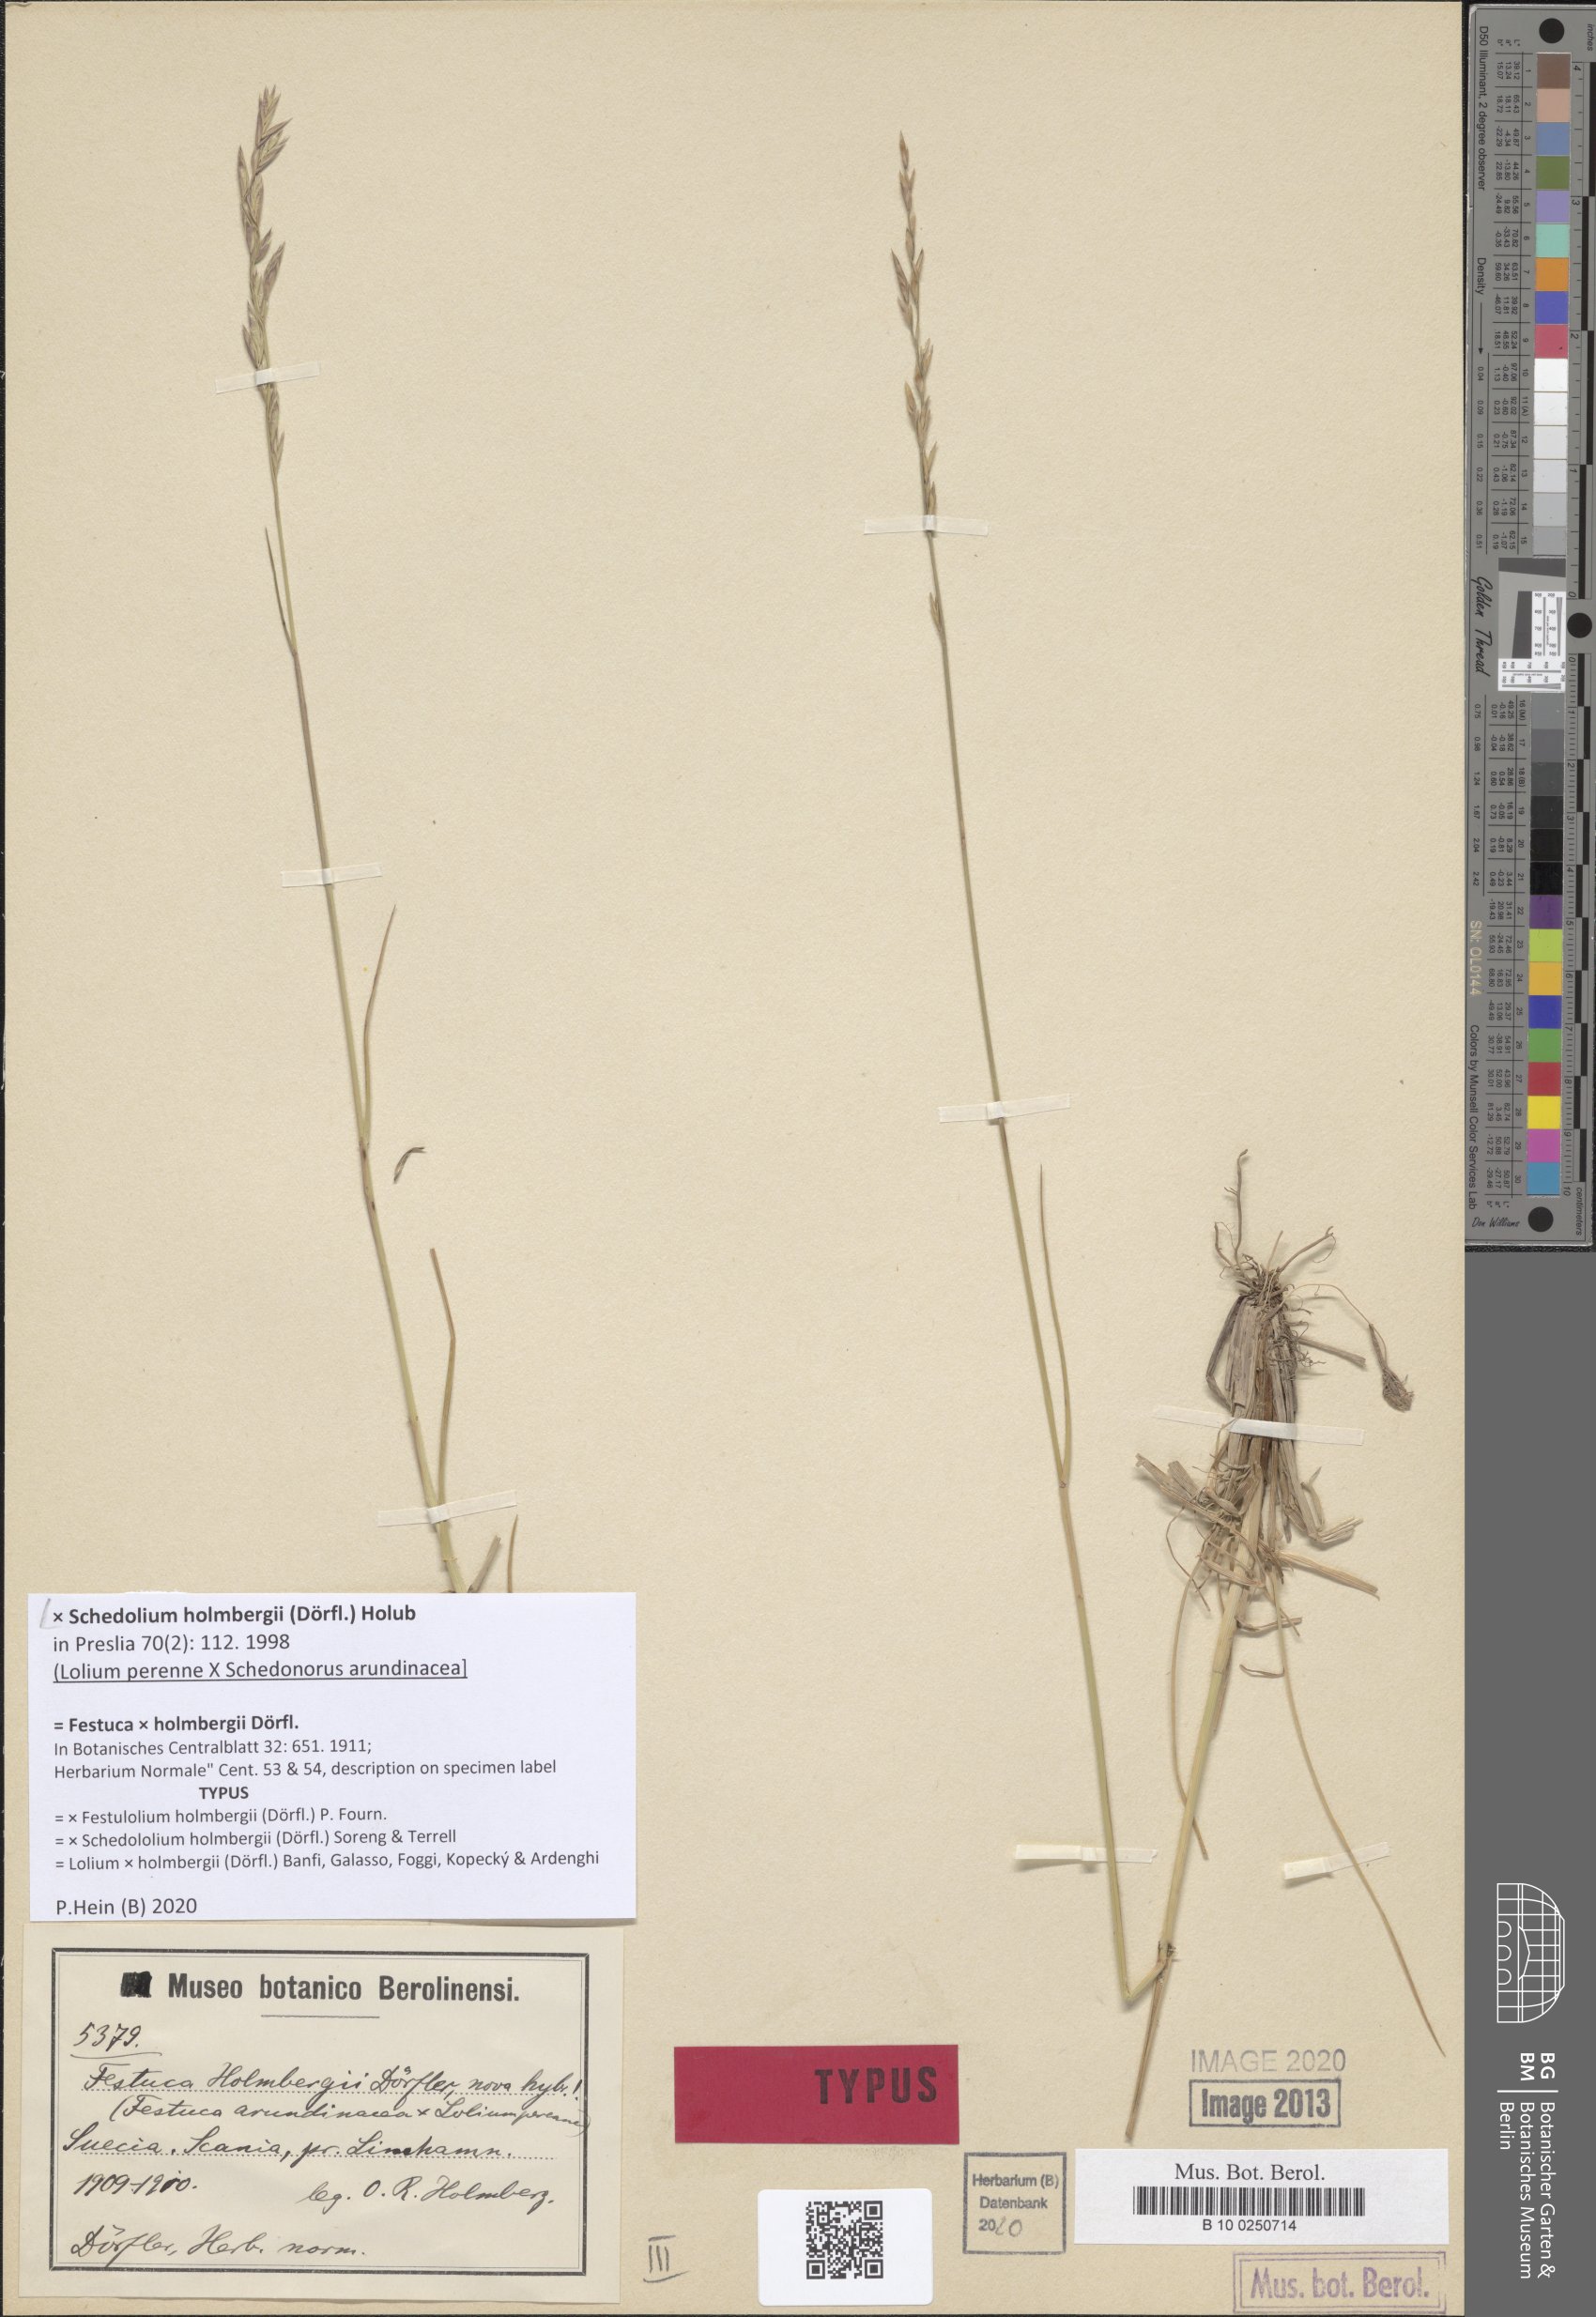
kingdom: Plantae
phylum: Tracheophyta
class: Liliopsida
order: Poales
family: Poaceae
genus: Lolium
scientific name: Lolium holmbergii
